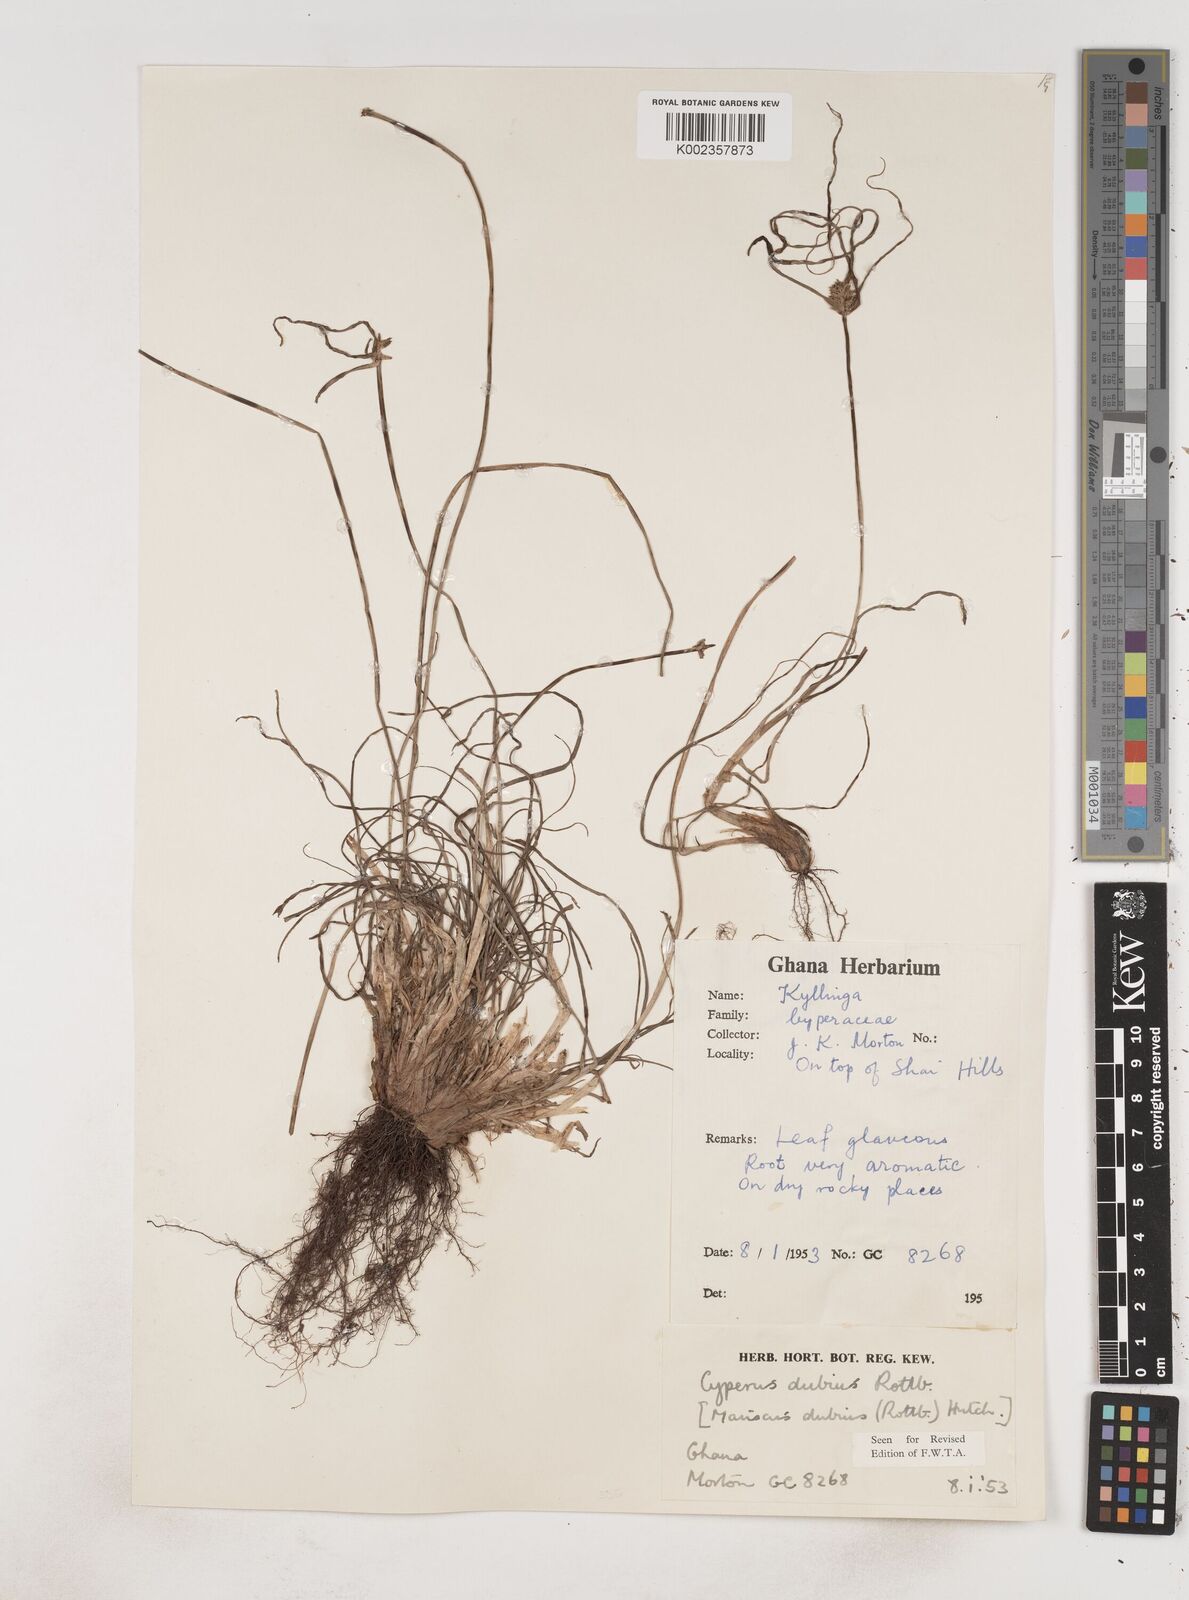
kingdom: Plantae
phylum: Tracheophyta
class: Liliopsida
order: Poales
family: Cyperaceae
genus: Cyperus
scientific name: Cyperus dubius
